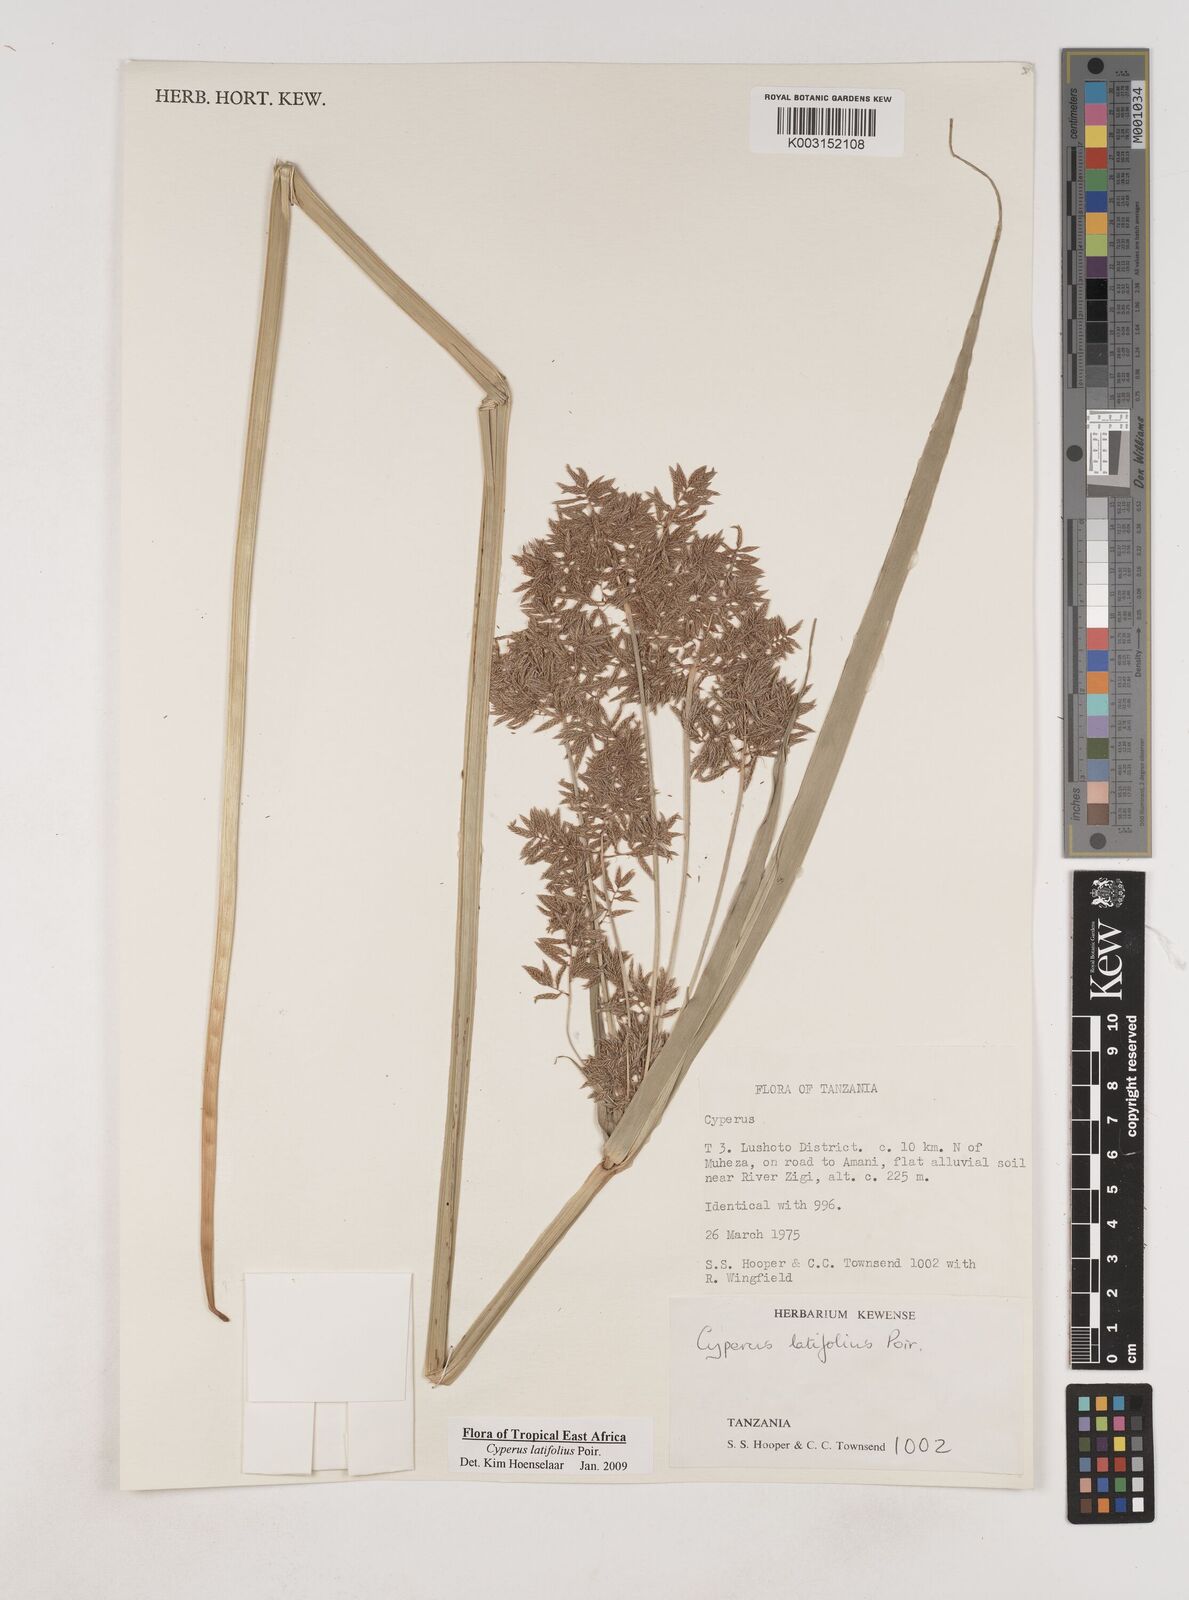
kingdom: Plantae
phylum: Tracheophyta
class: Liliopsida
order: Poales
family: Cyperaceae
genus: Cyperus
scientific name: Cyperus latifolius
